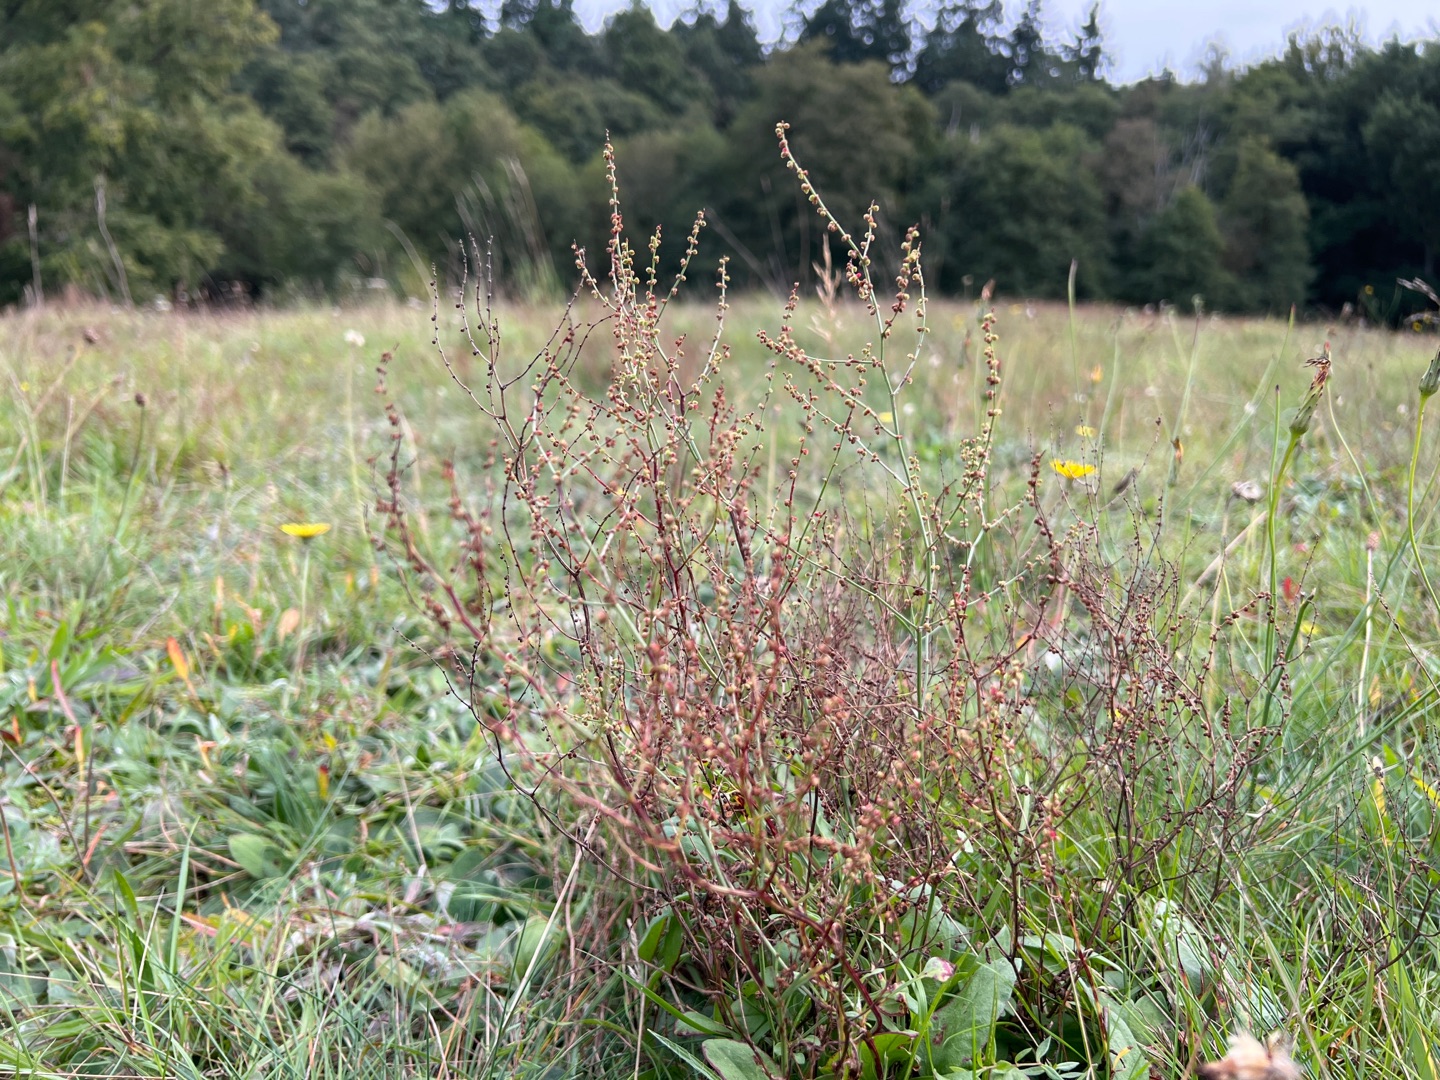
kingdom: Plantae
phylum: Tracheophyta
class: Magnoliopsida
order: Caryophyllales
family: Polygonaceae
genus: Rumex
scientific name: Rumex acetosella
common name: Rødknæ
